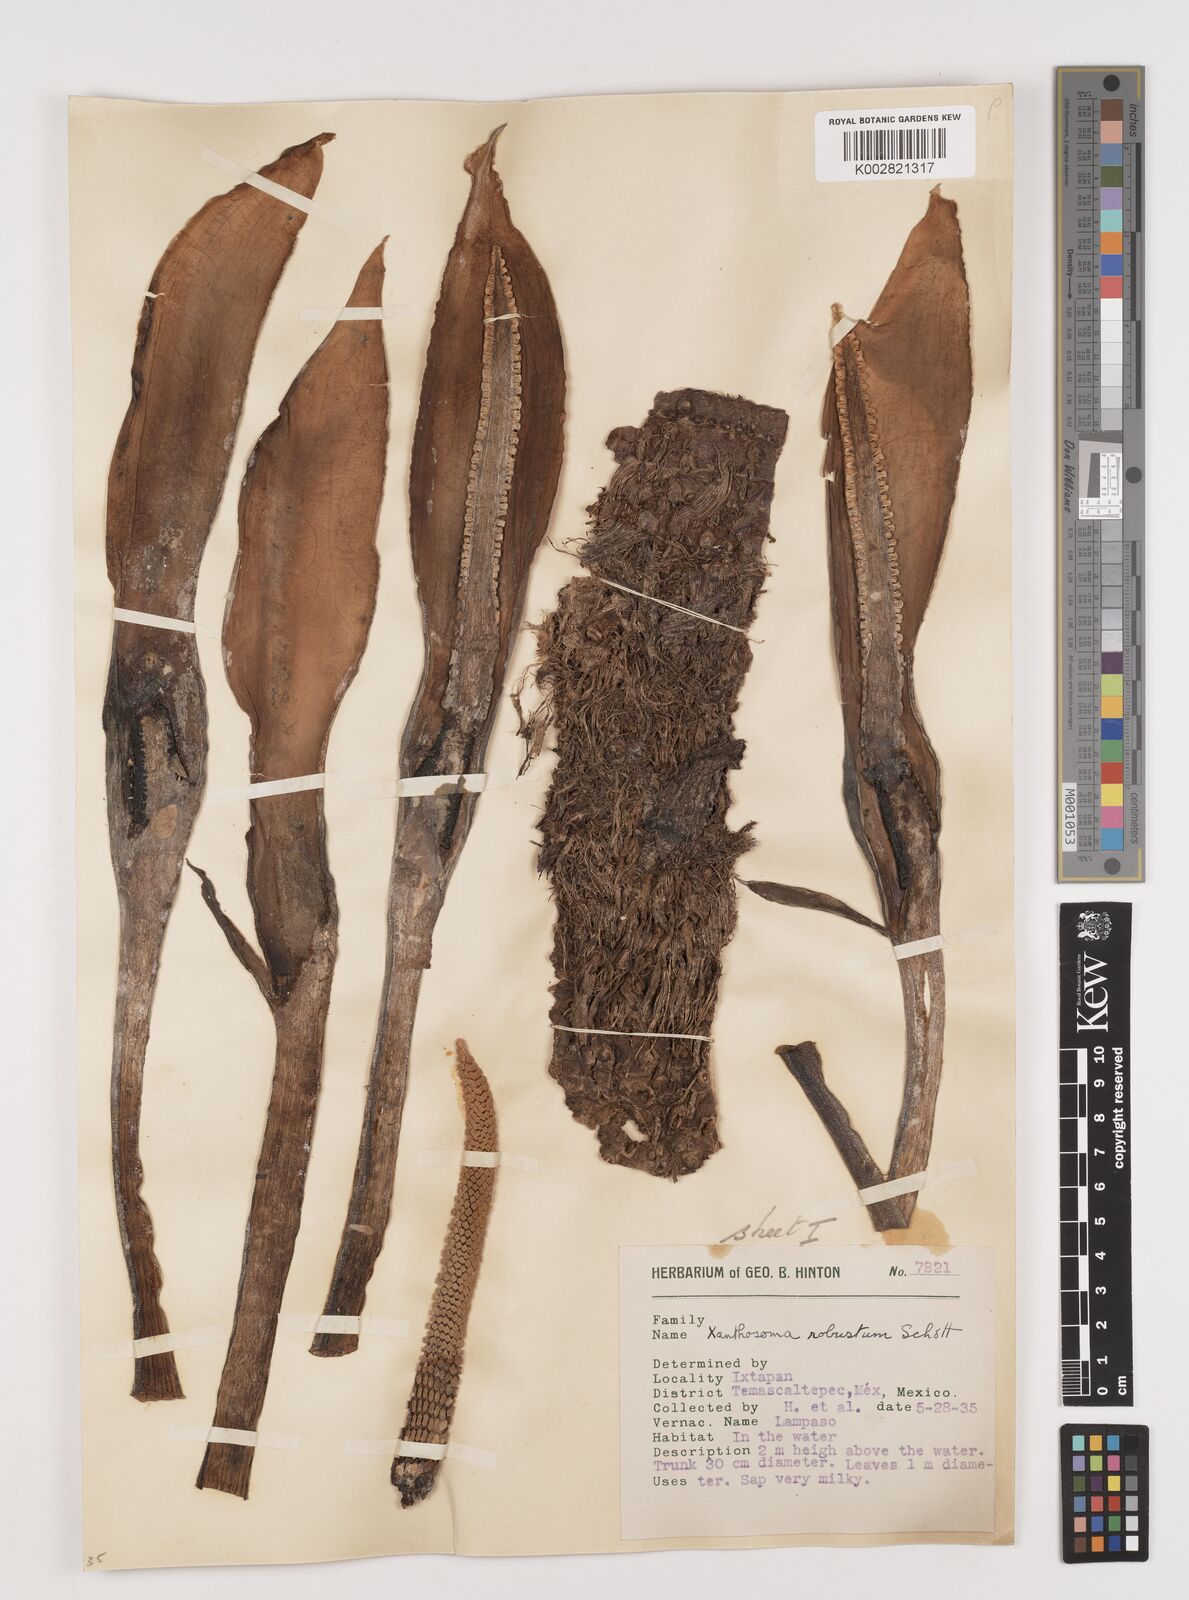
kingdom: Plantae
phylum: Tracheophyta
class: Liliopsida
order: Alismatales
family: Araceae
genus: Xanthosoma
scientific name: Xanthosoma robustum
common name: Capote
